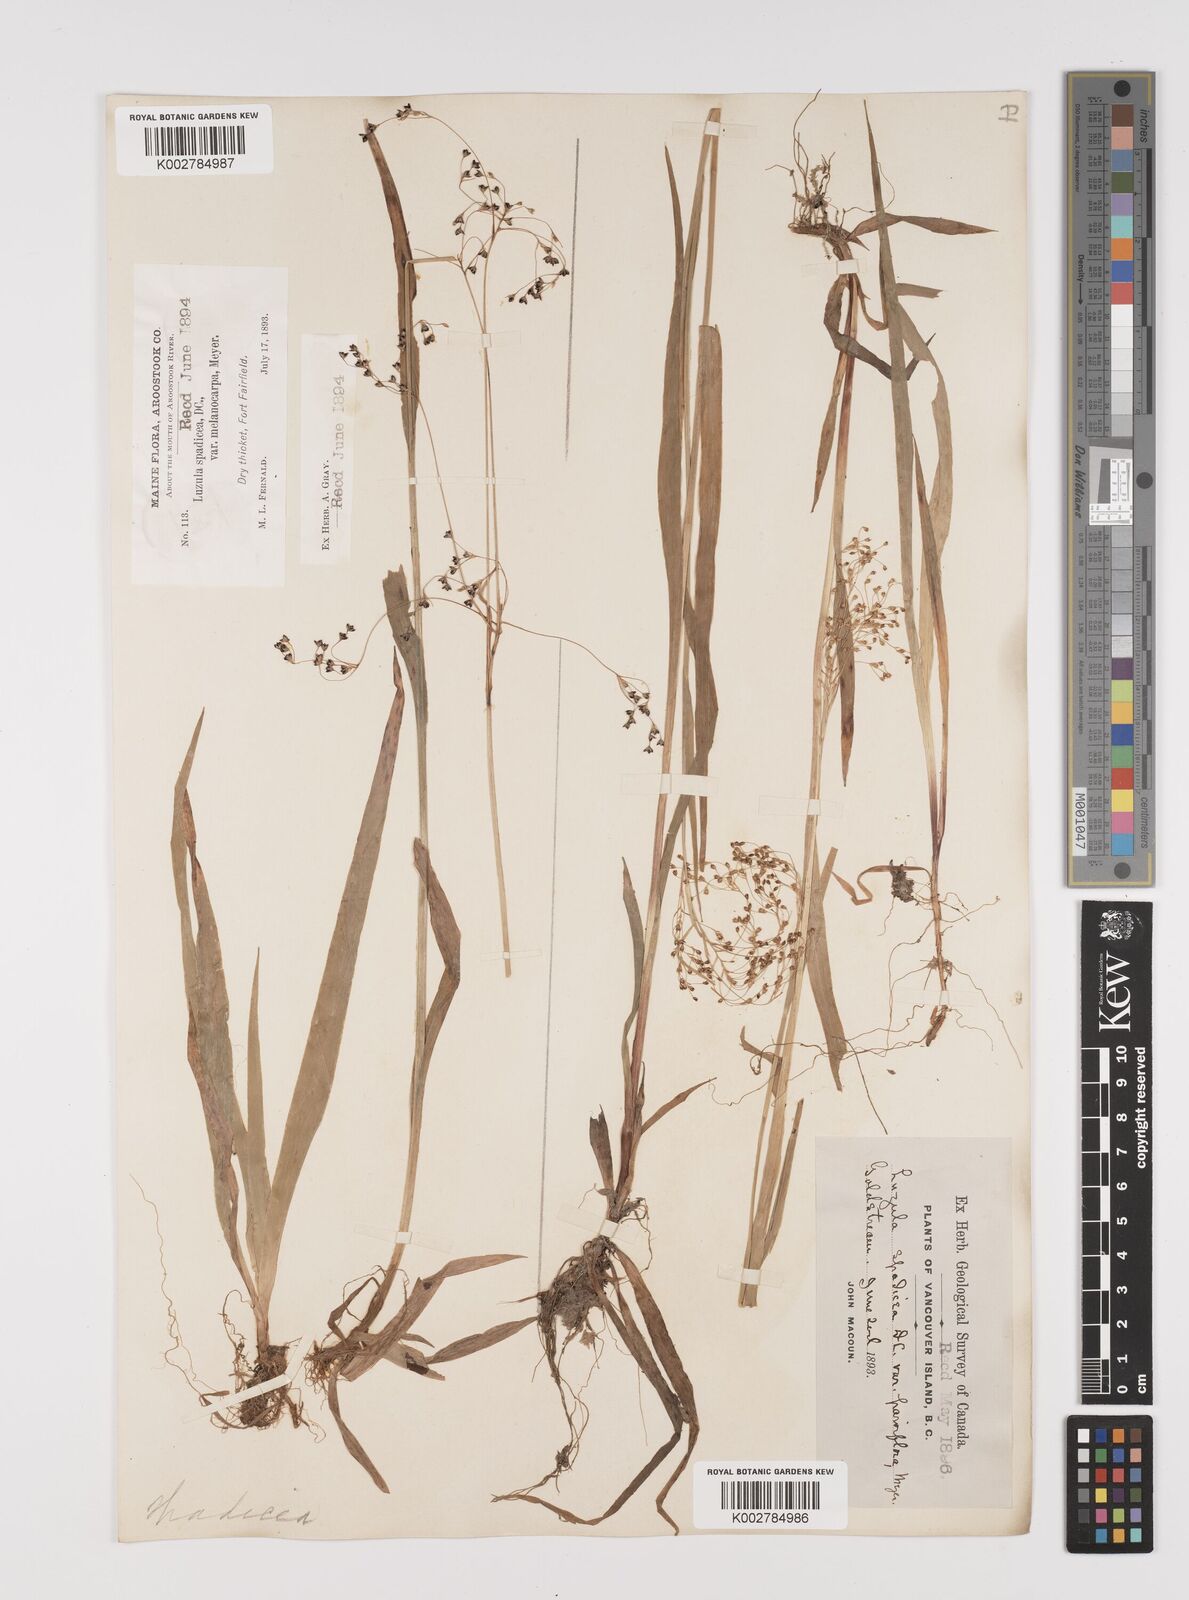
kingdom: Plantae
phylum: Tracheophyta
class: Liliopsida
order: Poales
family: Juncaceae
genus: Luzula
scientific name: Luzula parviflora
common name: Millet woodrush
